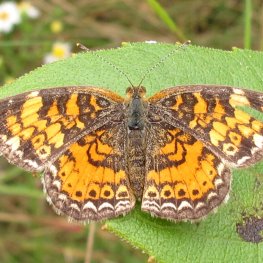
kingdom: Animalia
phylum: Arthropoda
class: Insecta
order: Lepidoptera
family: Nymphalidae
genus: Phyciodes
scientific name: Phyciodes tharos
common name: Northern Crescent
